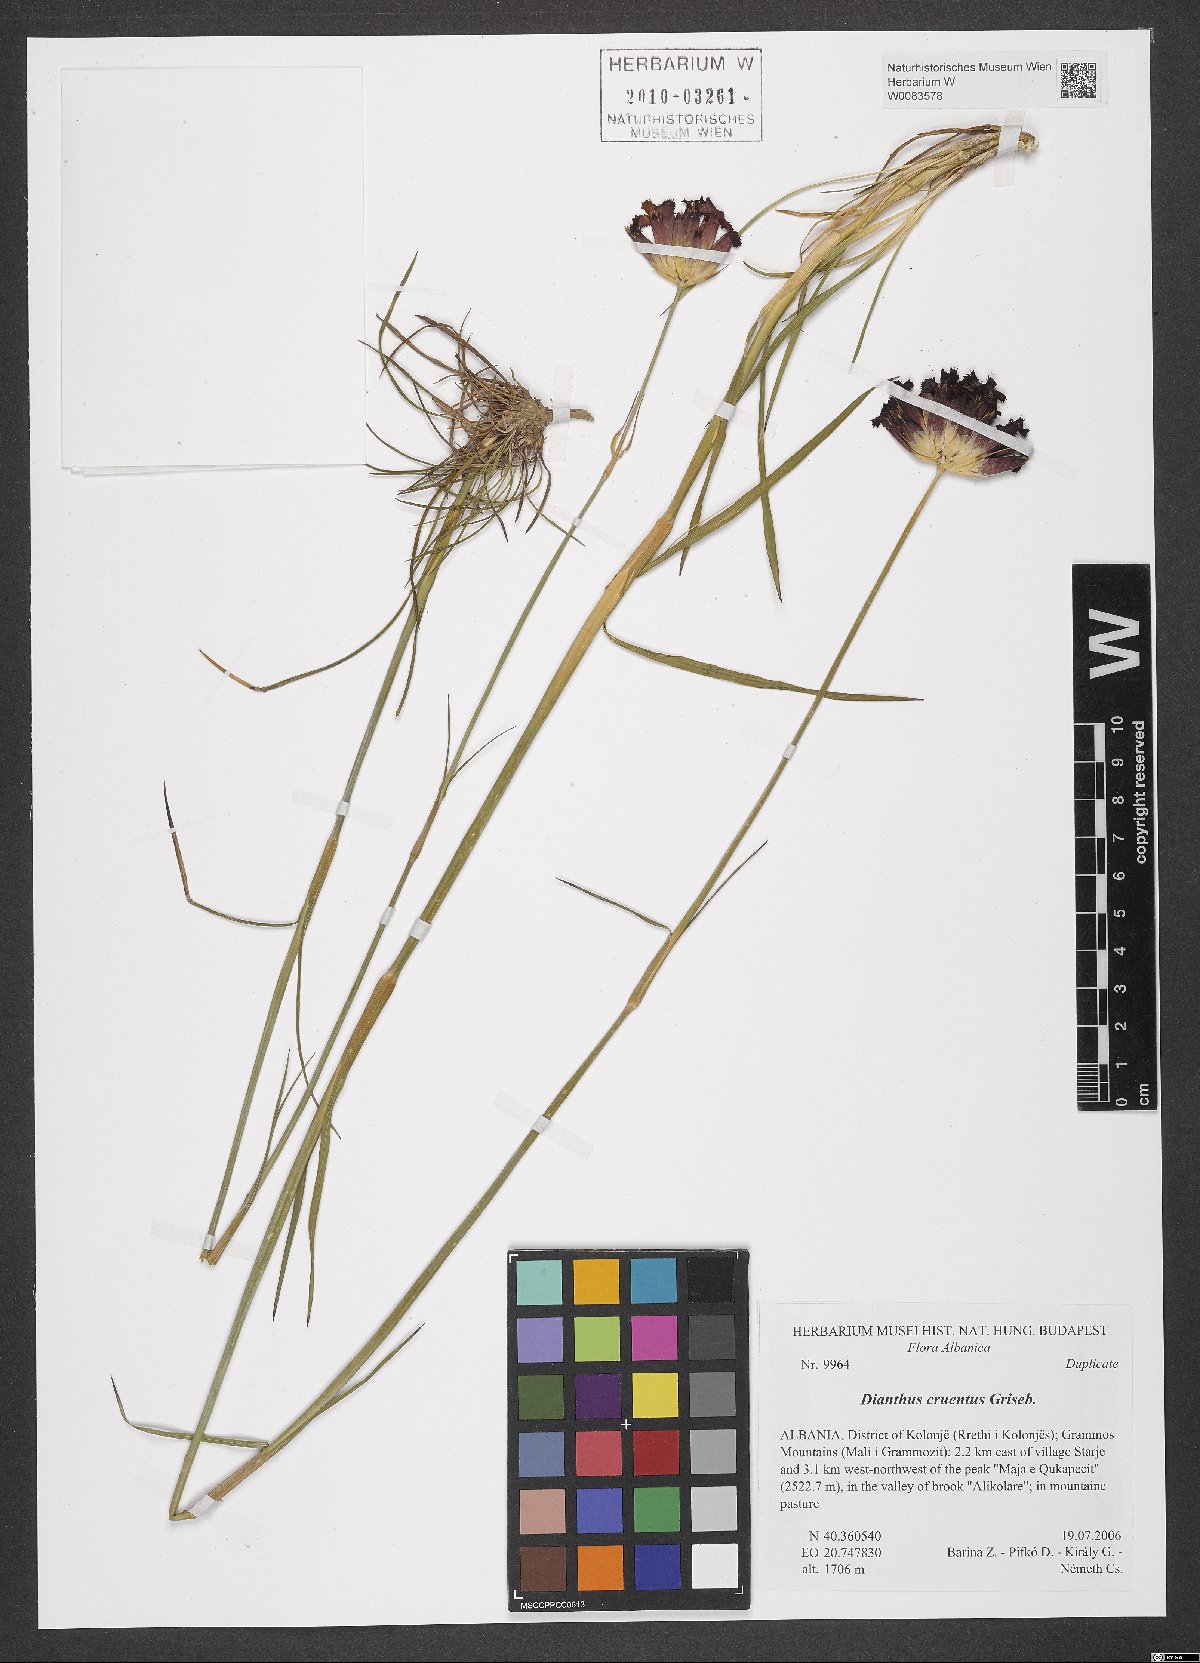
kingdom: Plantae
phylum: Tracheophyta
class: Magnoliopsida
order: Caryophyllales
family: Caryophyllaceae
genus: Dianthus
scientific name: Dianthus cruentus
